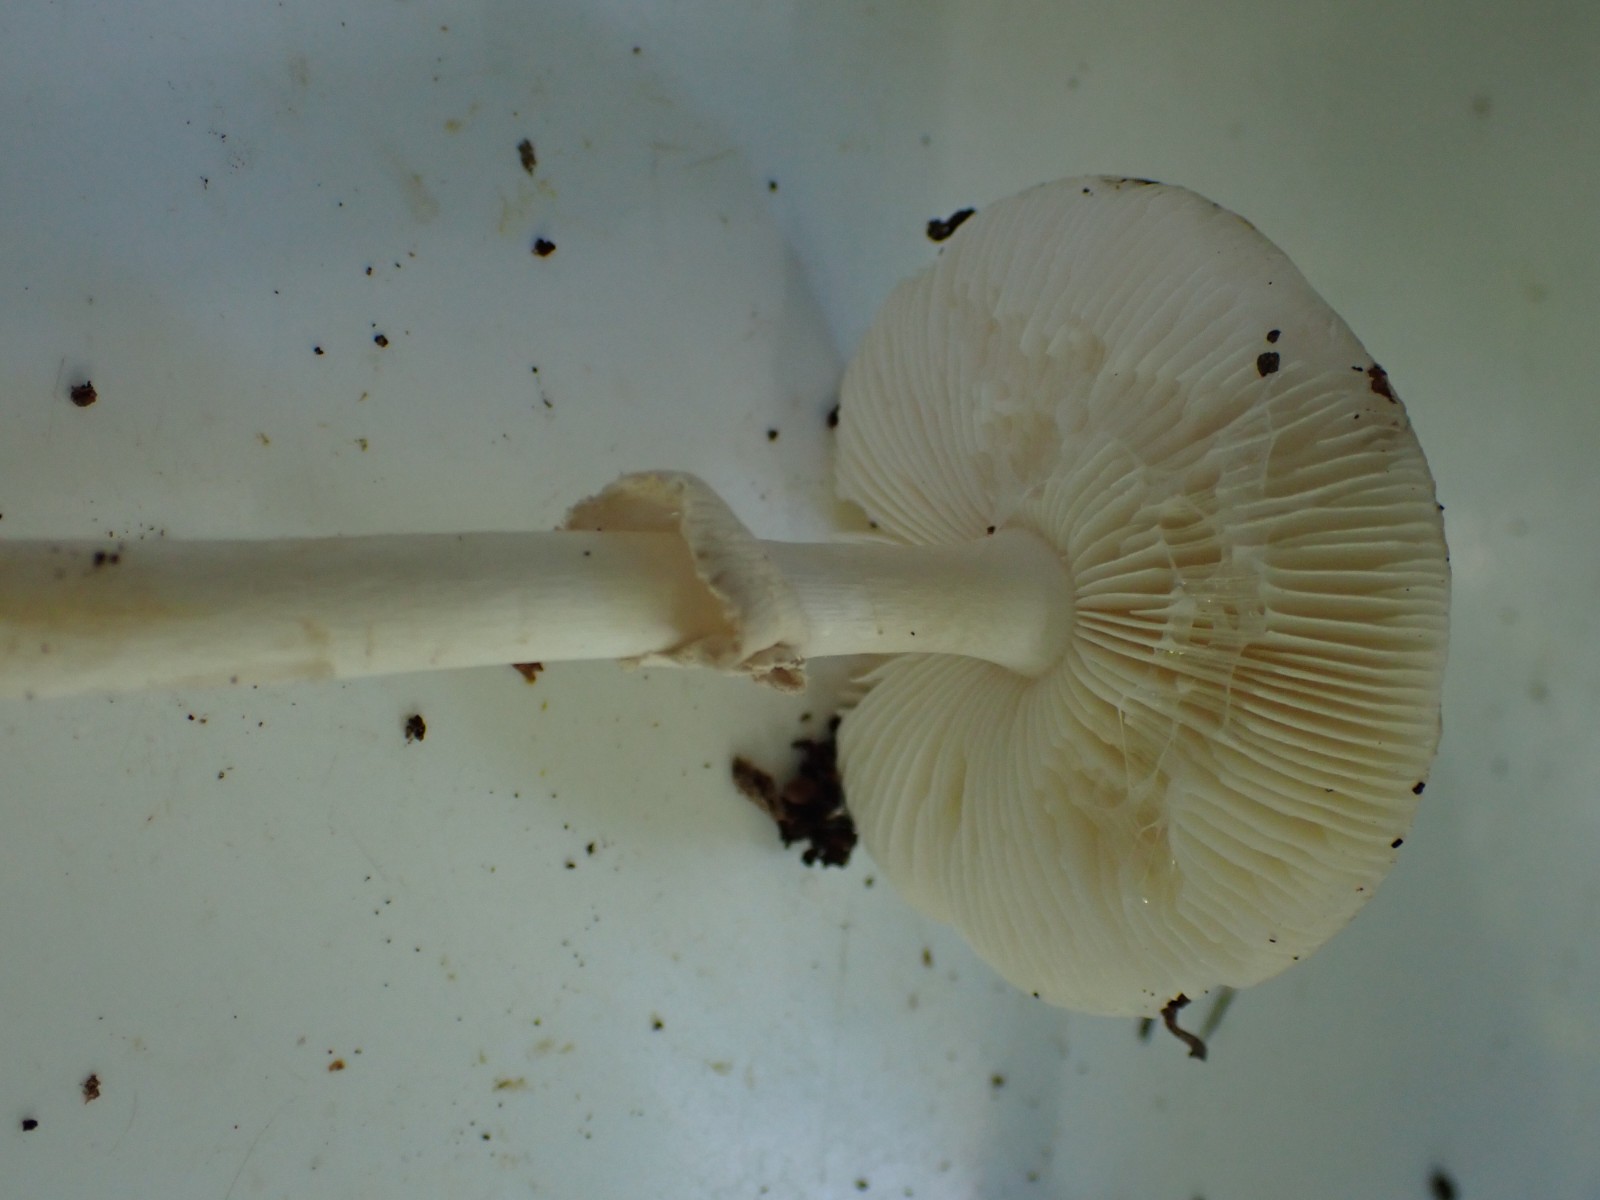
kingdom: Fungi
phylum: Basidiomycota
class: Agaricomycetes
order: Agaricales
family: Amanitaceae
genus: Amanita
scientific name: Amanita citrina
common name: kugleknoldet fluesvamp
